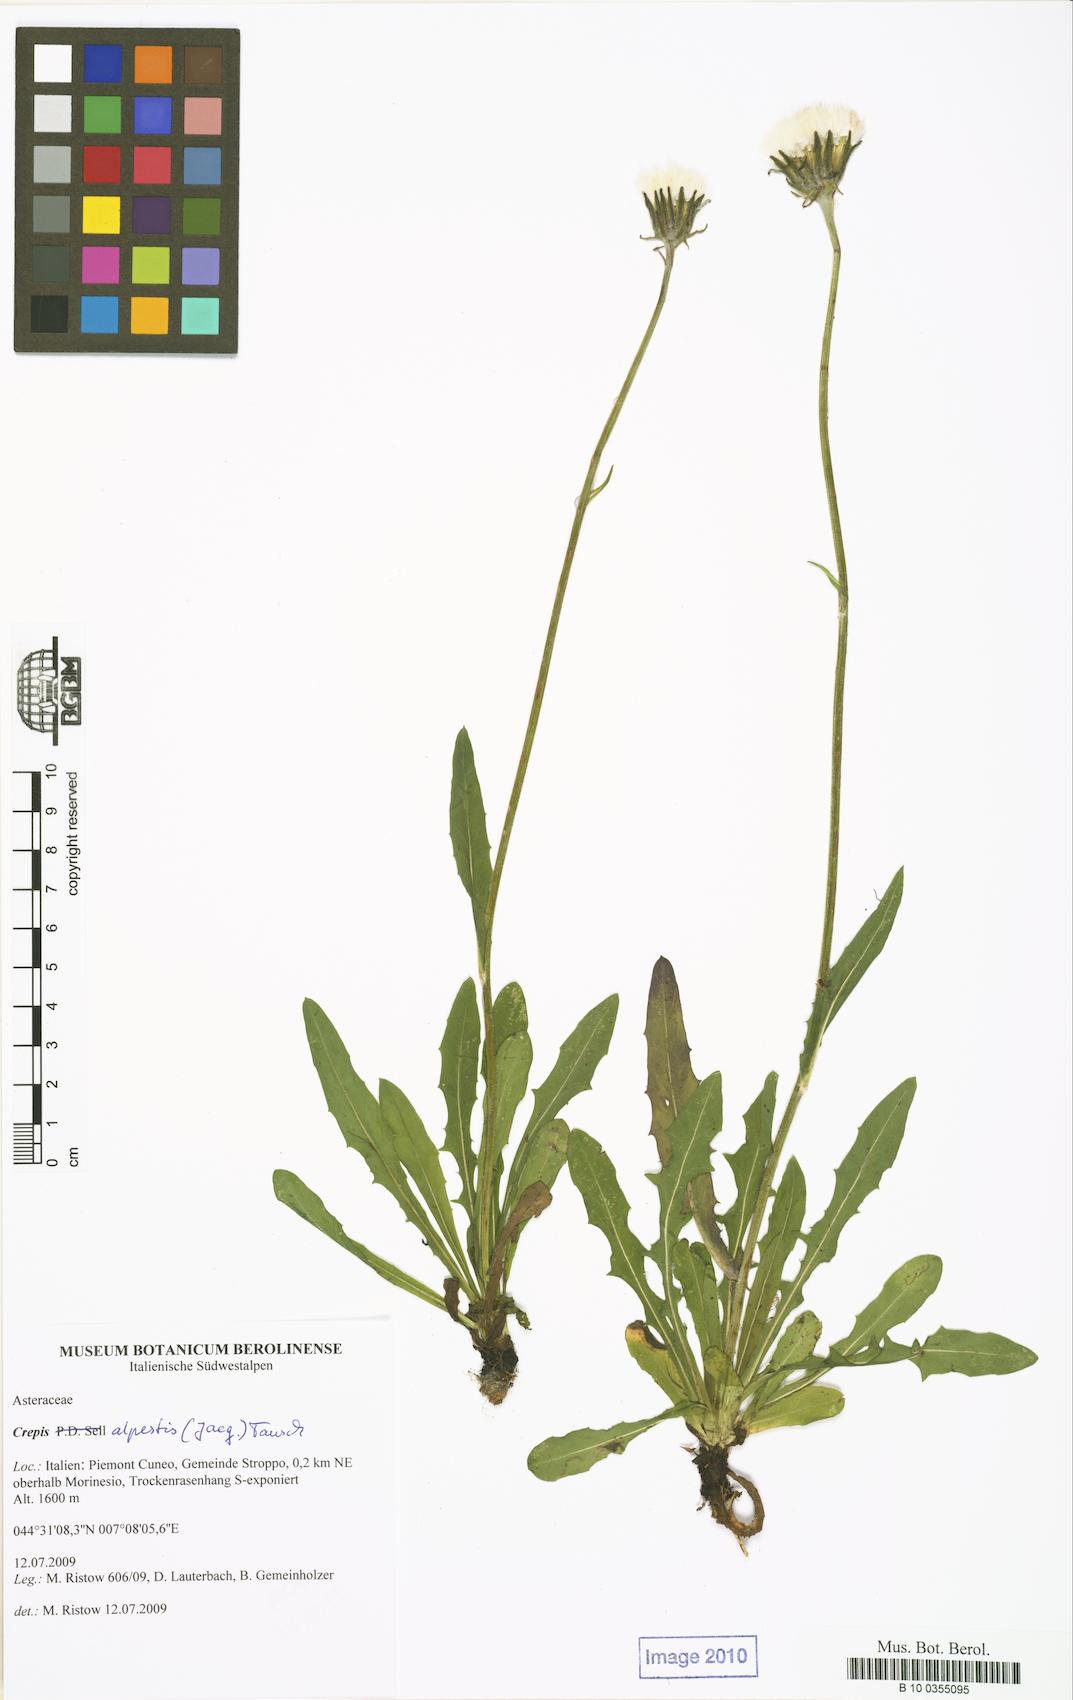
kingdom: Plantae
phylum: Tracheophyta
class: Magnoliopsida
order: Asterales
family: Asteraceae
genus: Crepis
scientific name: Crepis alpestris
